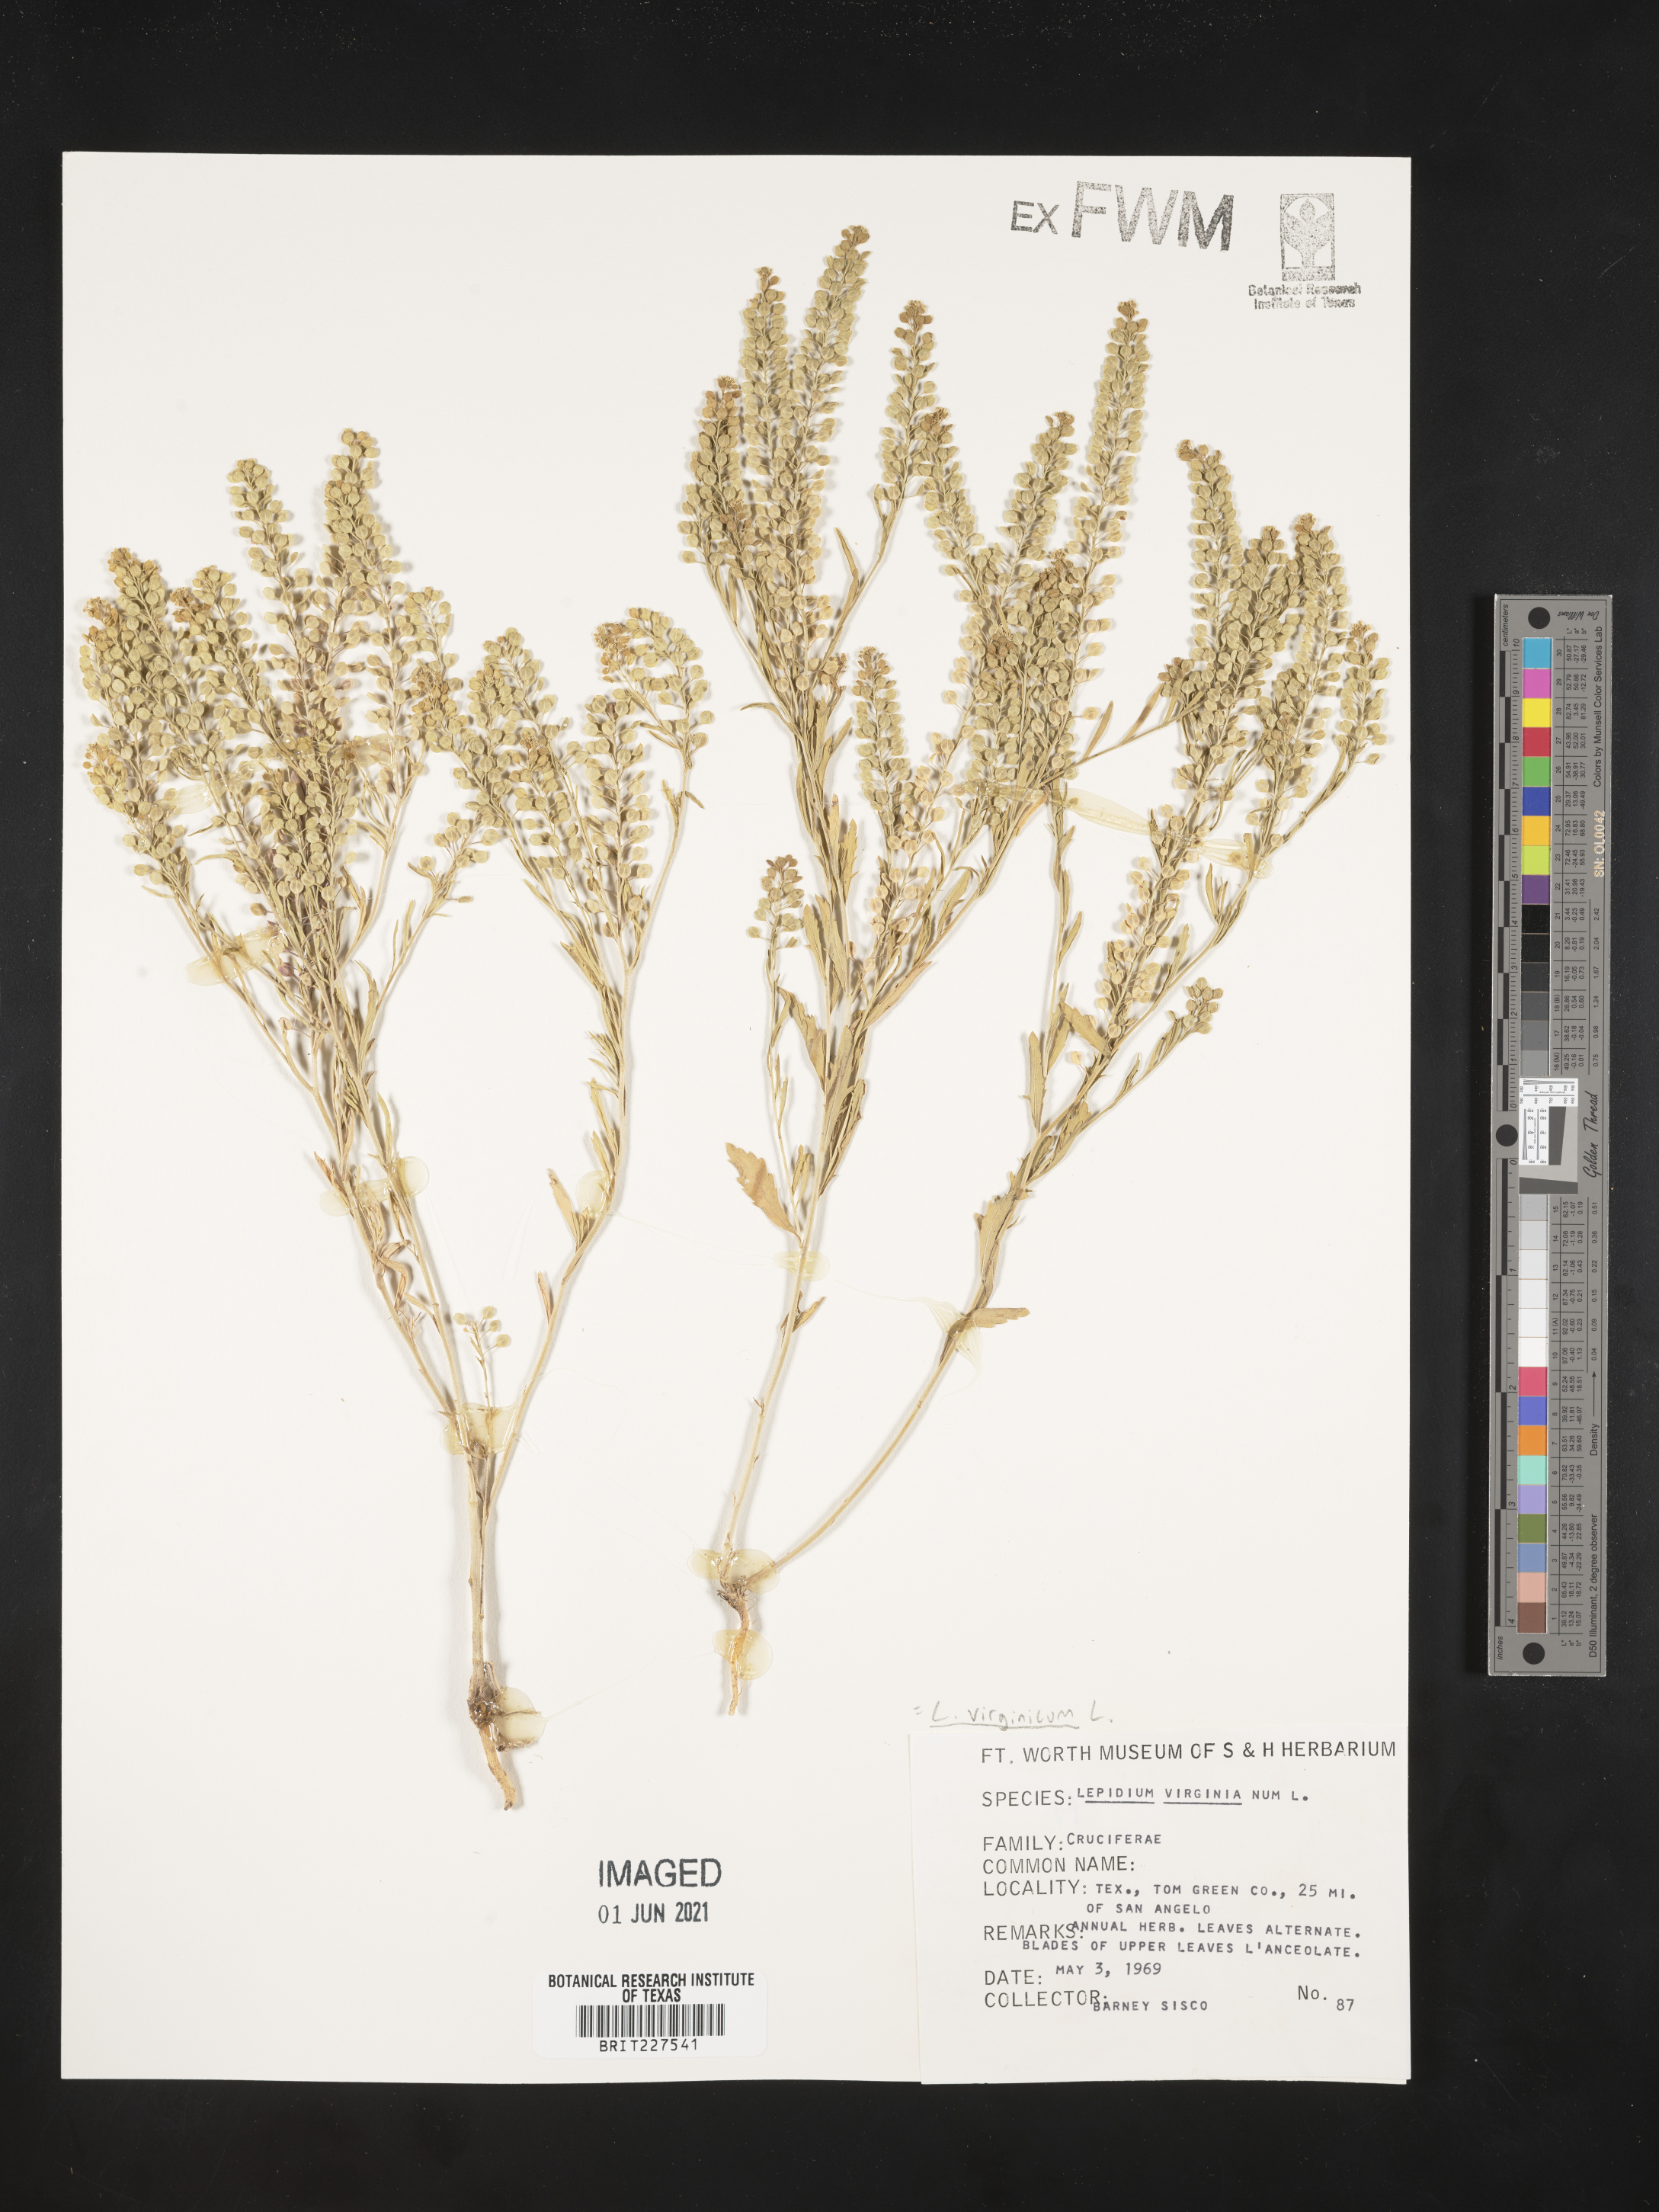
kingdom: Plantae
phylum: Tracheophyta
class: Magnoliopsida
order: Brassicales
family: Brassicaceae
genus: Lepidium
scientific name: Lepidium virginicum
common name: Least pepperwort
